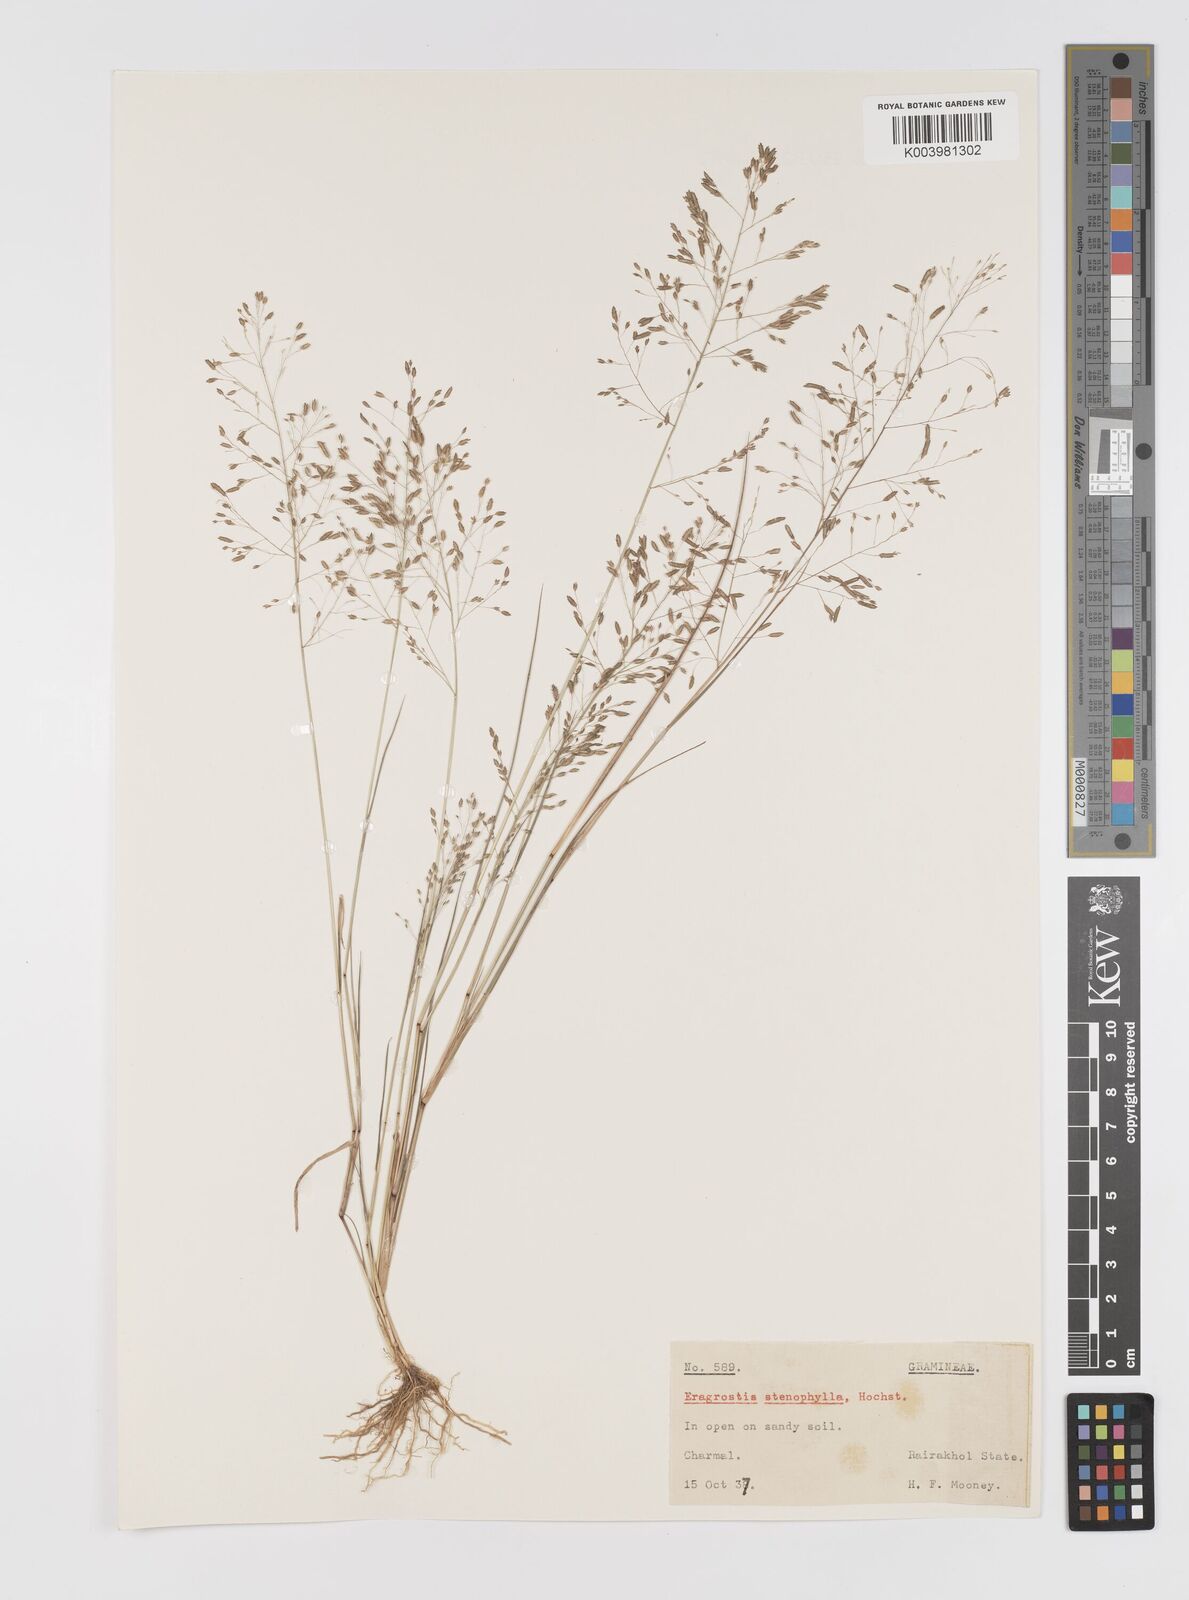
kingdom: Plantae
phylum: Tracheophyta
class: Liliopsida
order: Poales
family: Poaceae
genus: Eragrostis
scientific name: Eragrostis gangetica
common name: Slimflower lovegrass
